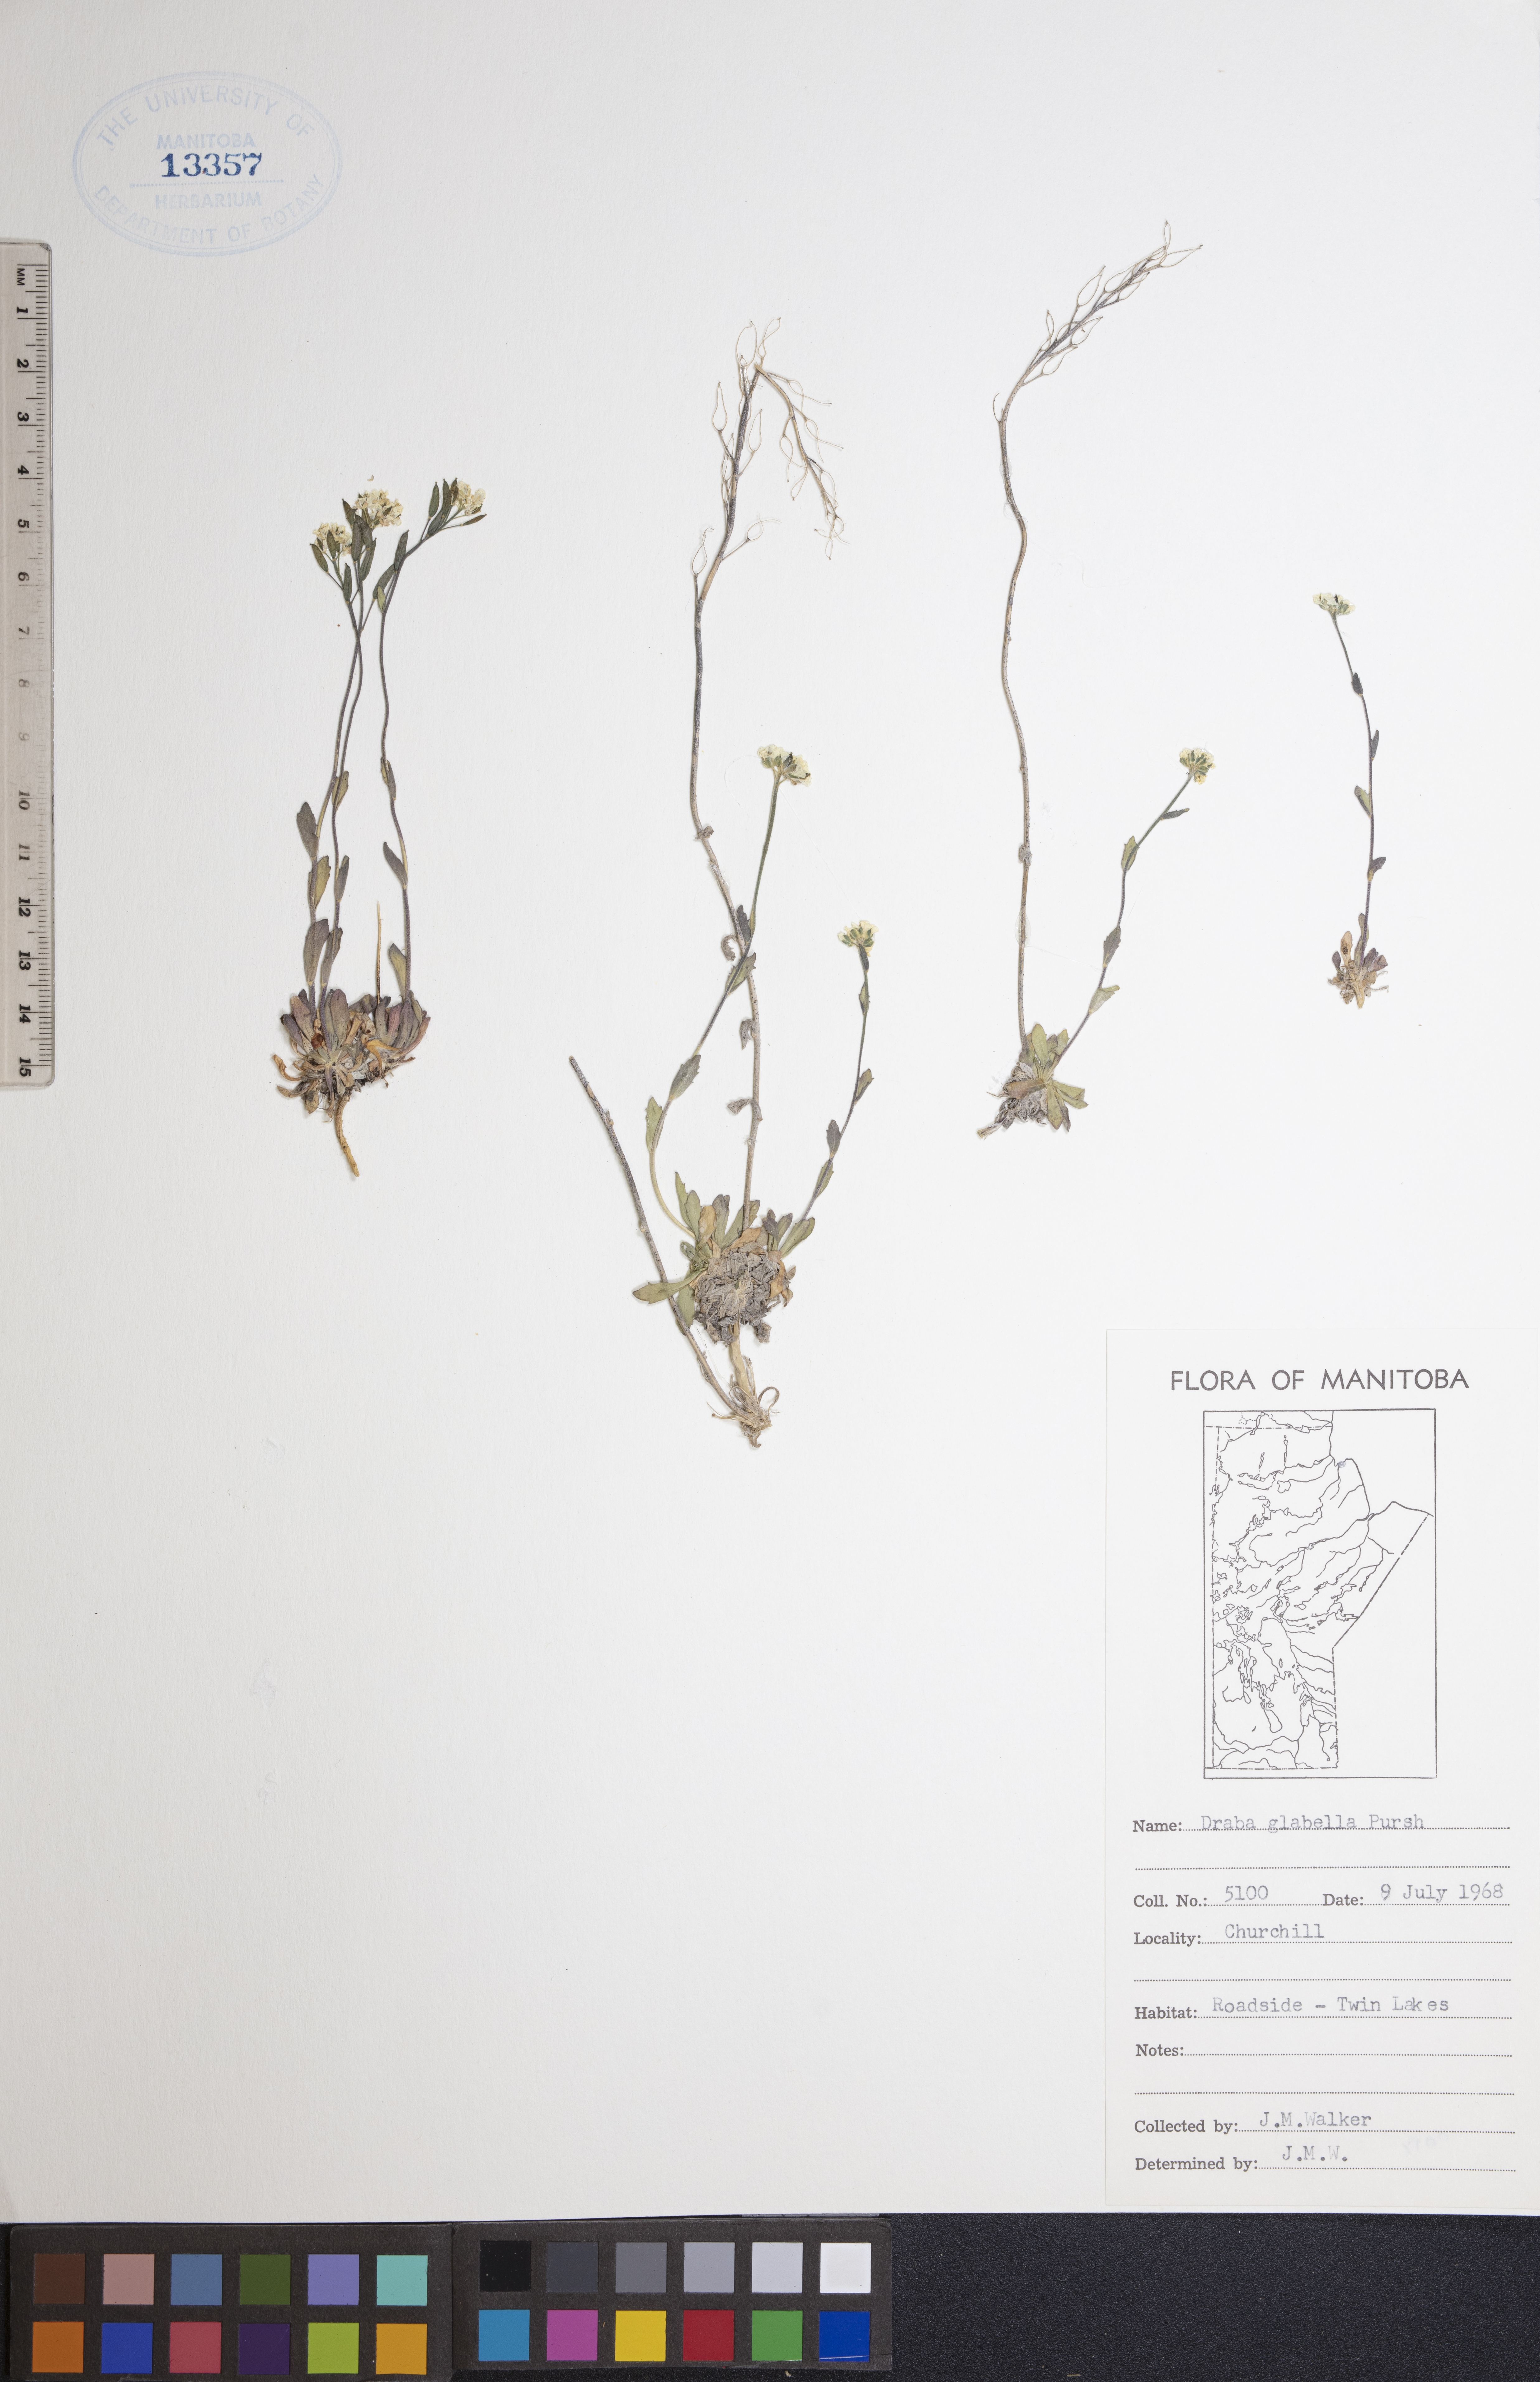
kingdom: Plantae
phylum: Tracheophyta
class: Magnoliopsida
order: Brassicales
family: Brassicaceae
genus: Draba
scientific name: Draba glabella
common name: Glaucous draba
